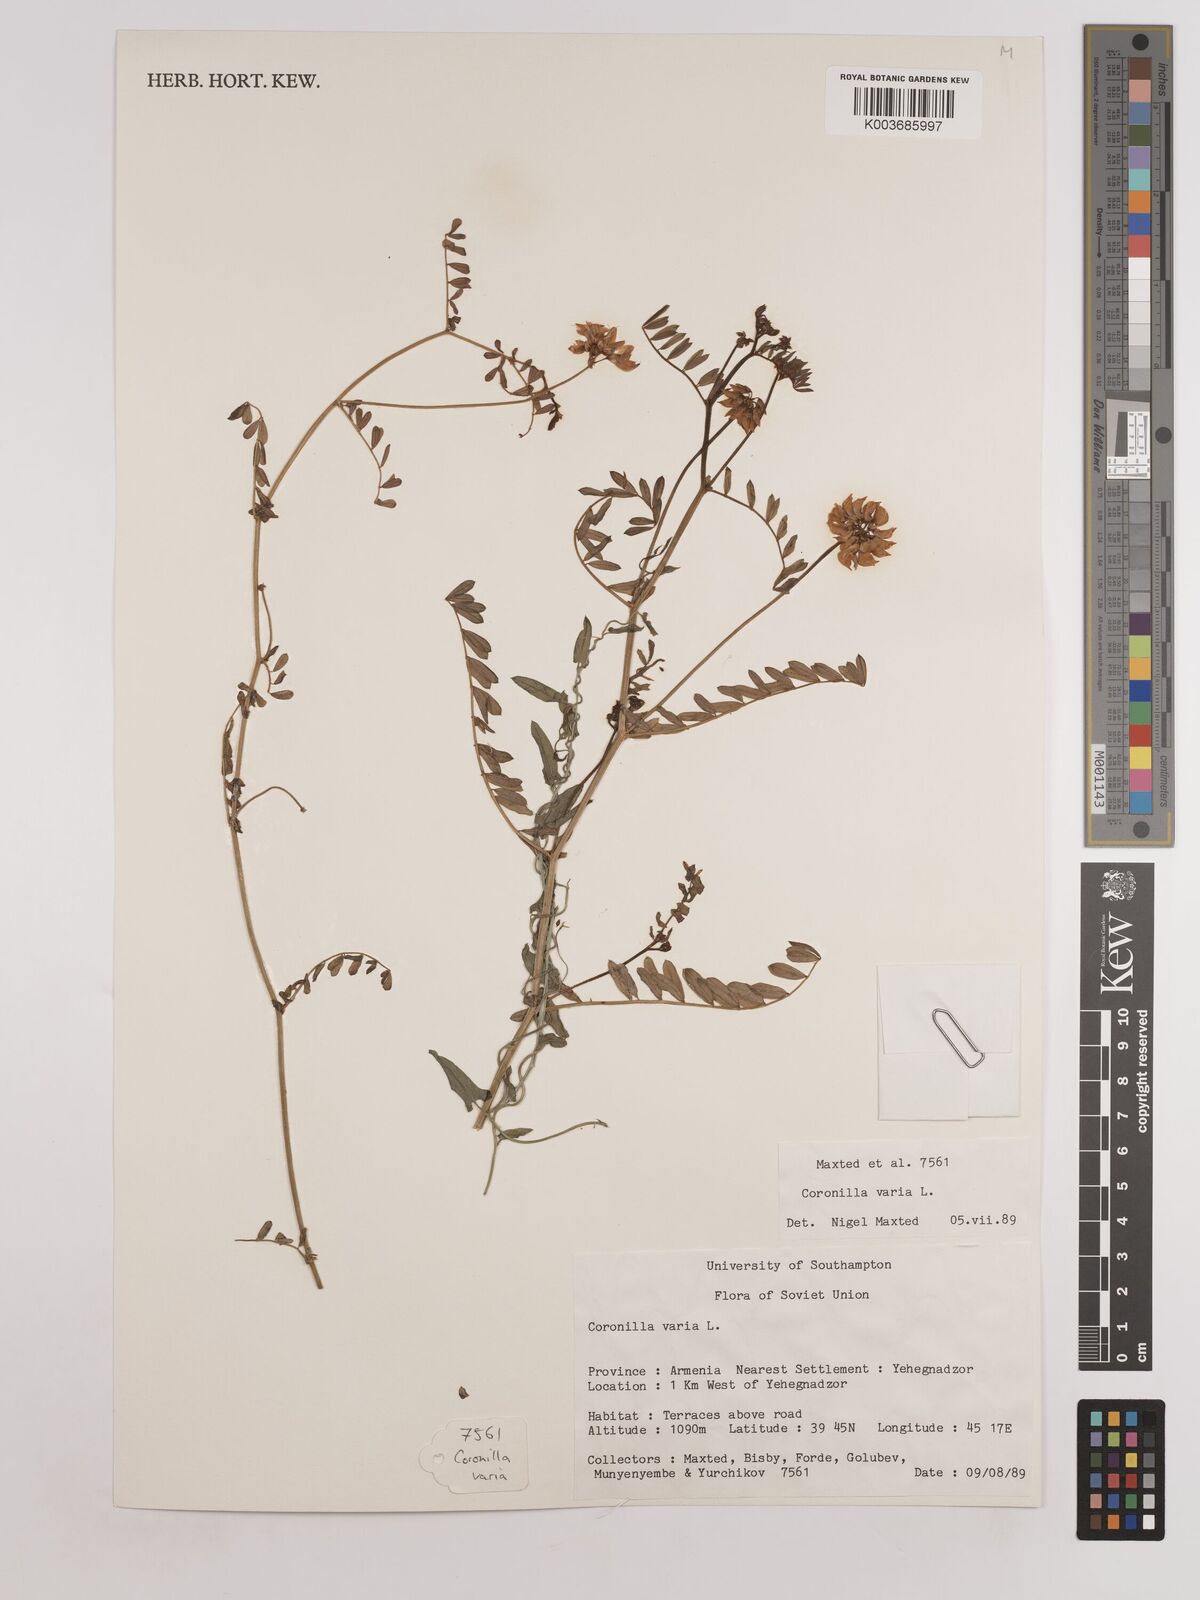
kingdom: Plantae
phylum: Tracheophyta
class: Magnoliopsida
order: Fabales
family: Fabaceae
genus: Coronilla
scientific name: Coronilla varia
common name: Crownvetch
